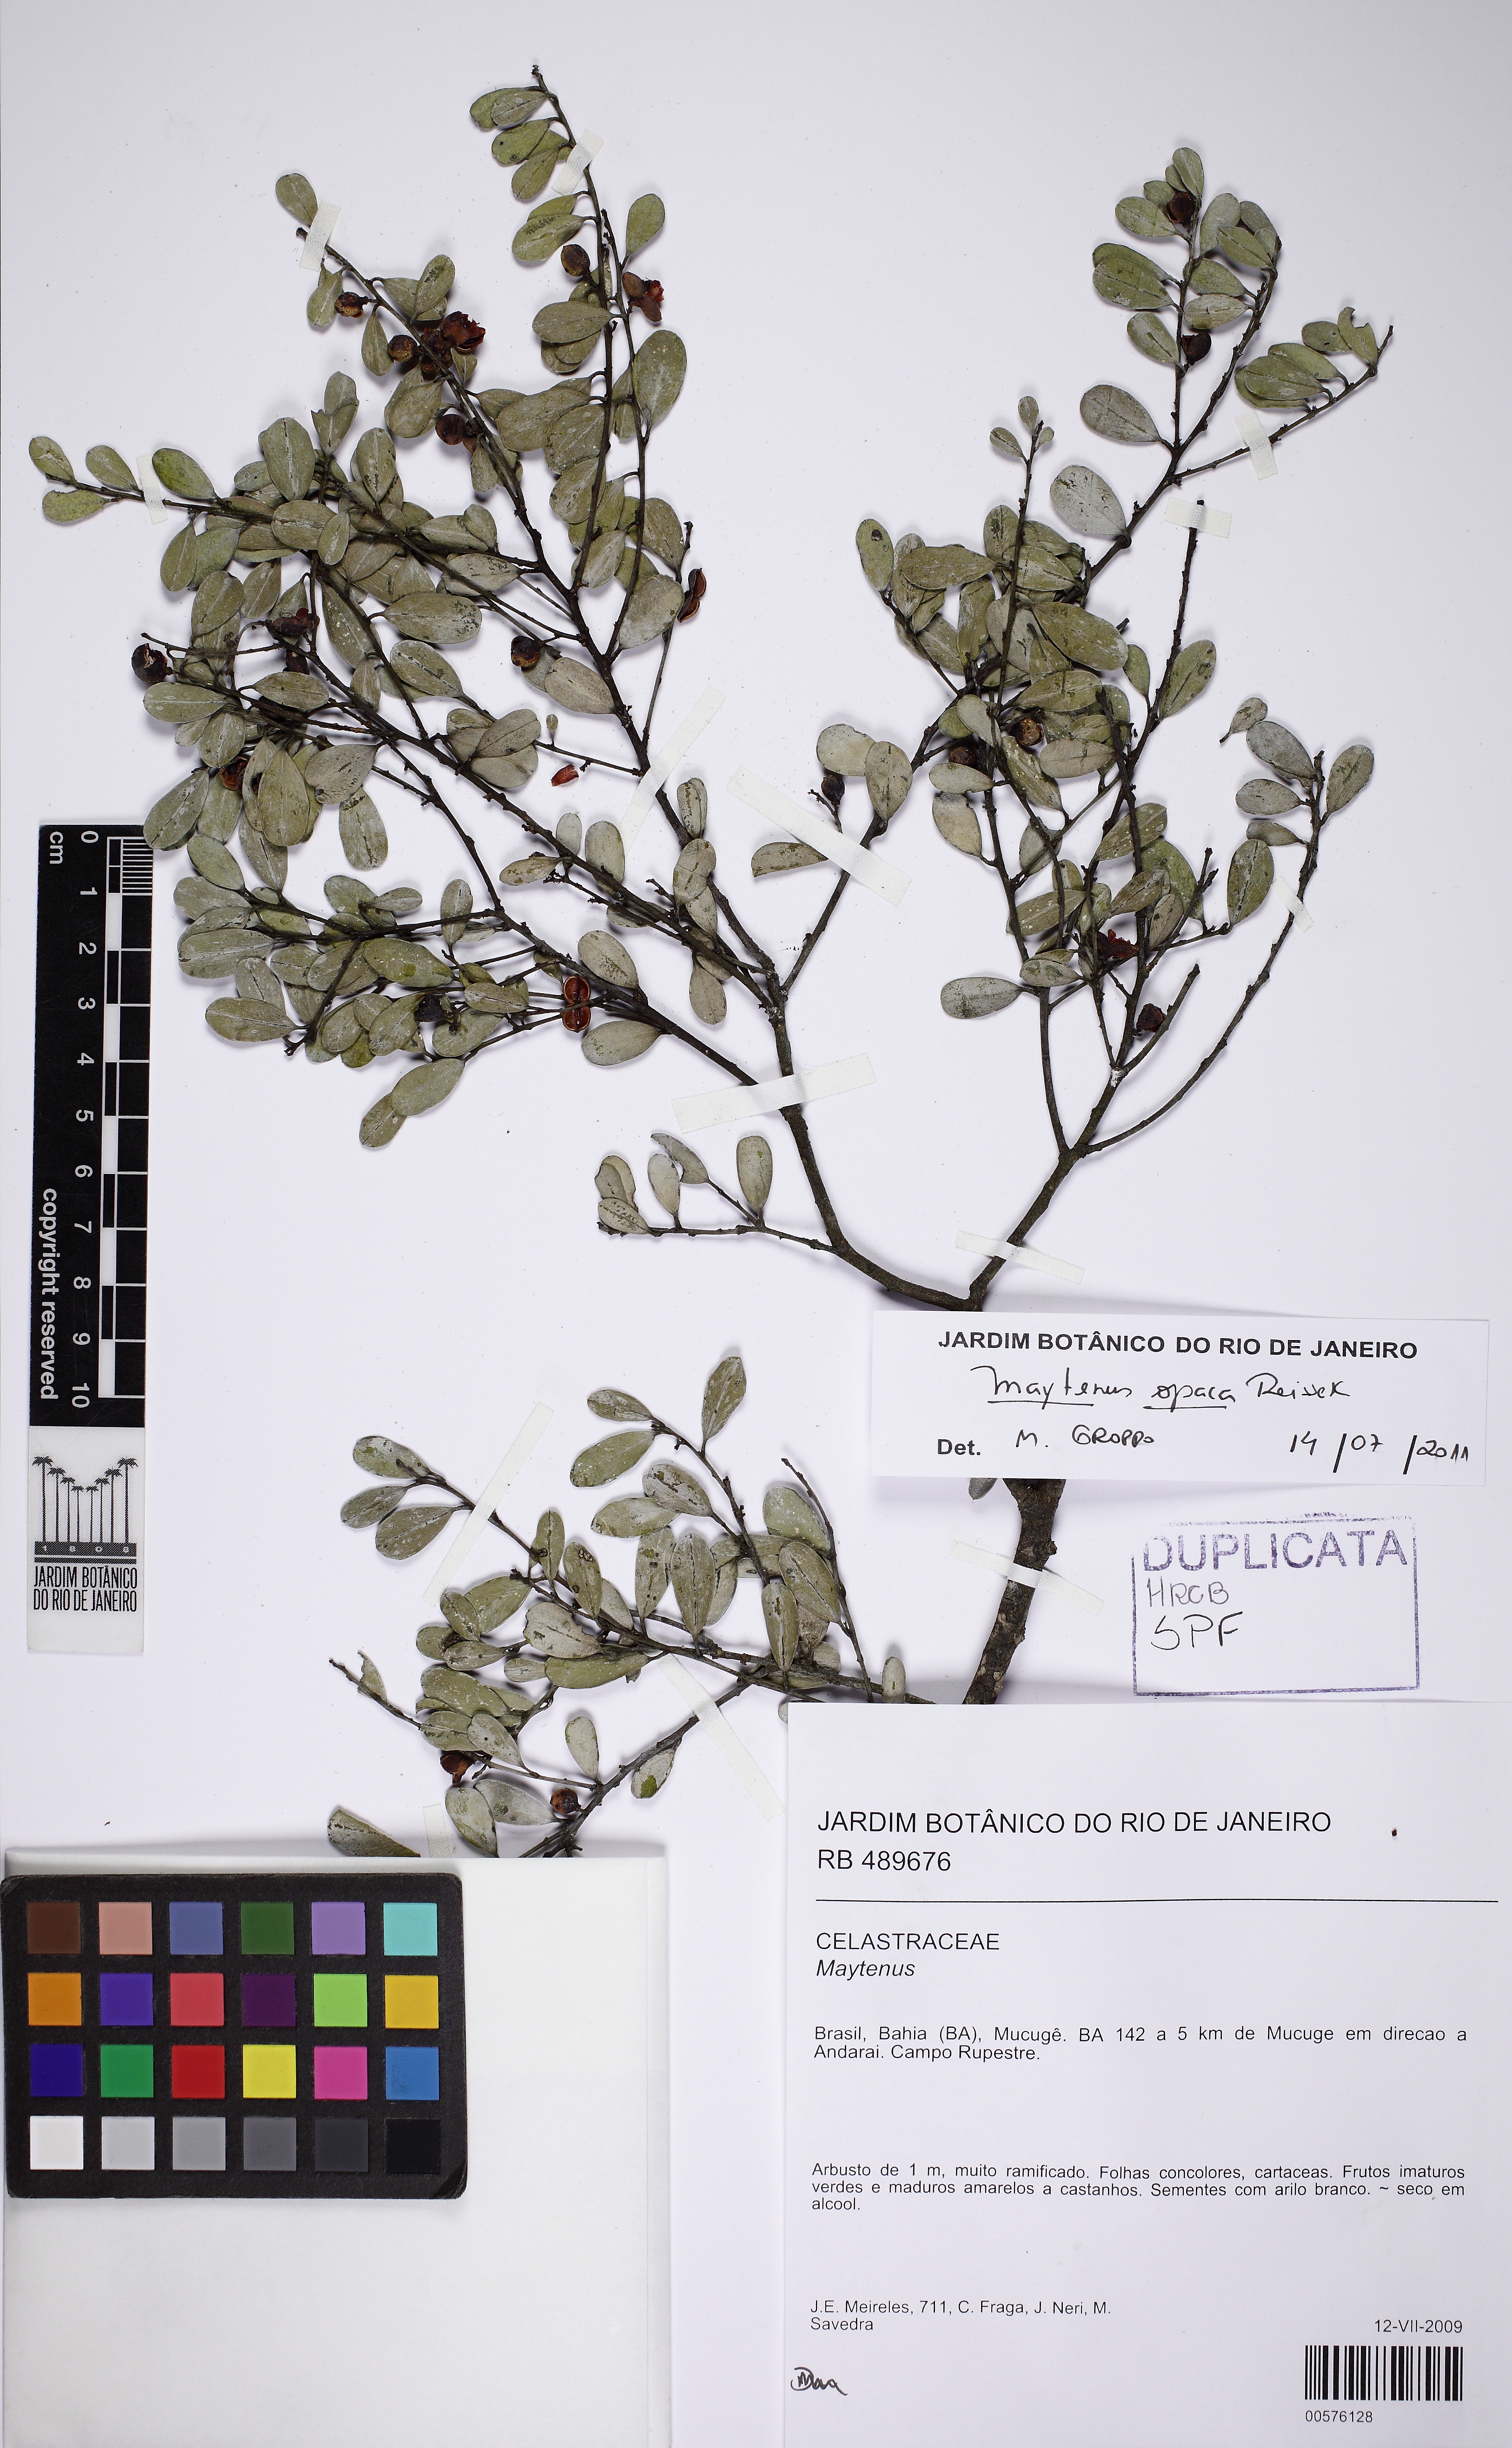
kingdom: Plantae
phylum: Tracheophyta
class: Magnoliopsida
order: Celastrales
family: Celastraceae
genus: Monteverdia
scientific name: Monteverdia opaca
